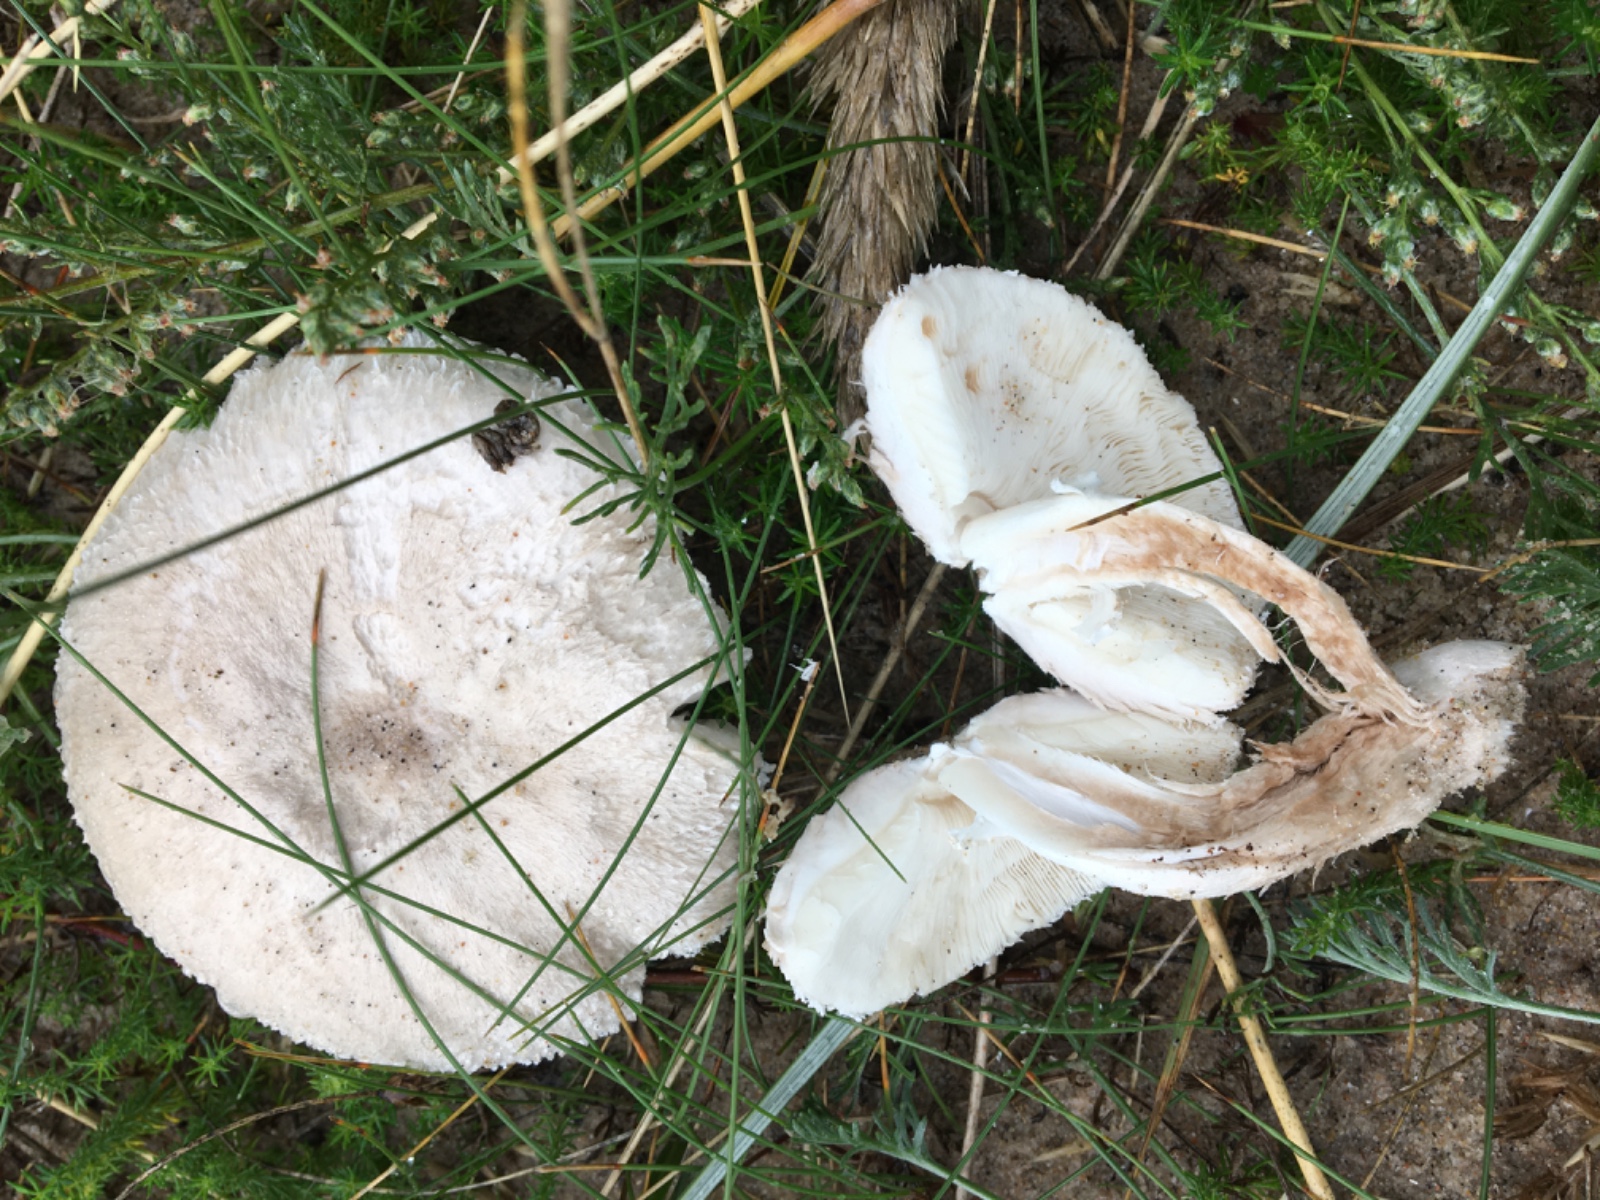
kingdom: Fungi
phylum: Basidiomycota
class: Agaricomycetes
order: Agaricales
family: Agaricaceae
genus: Leucoagaricus
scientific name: Leucoagaricus barssii
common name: gråfibret silkehat
